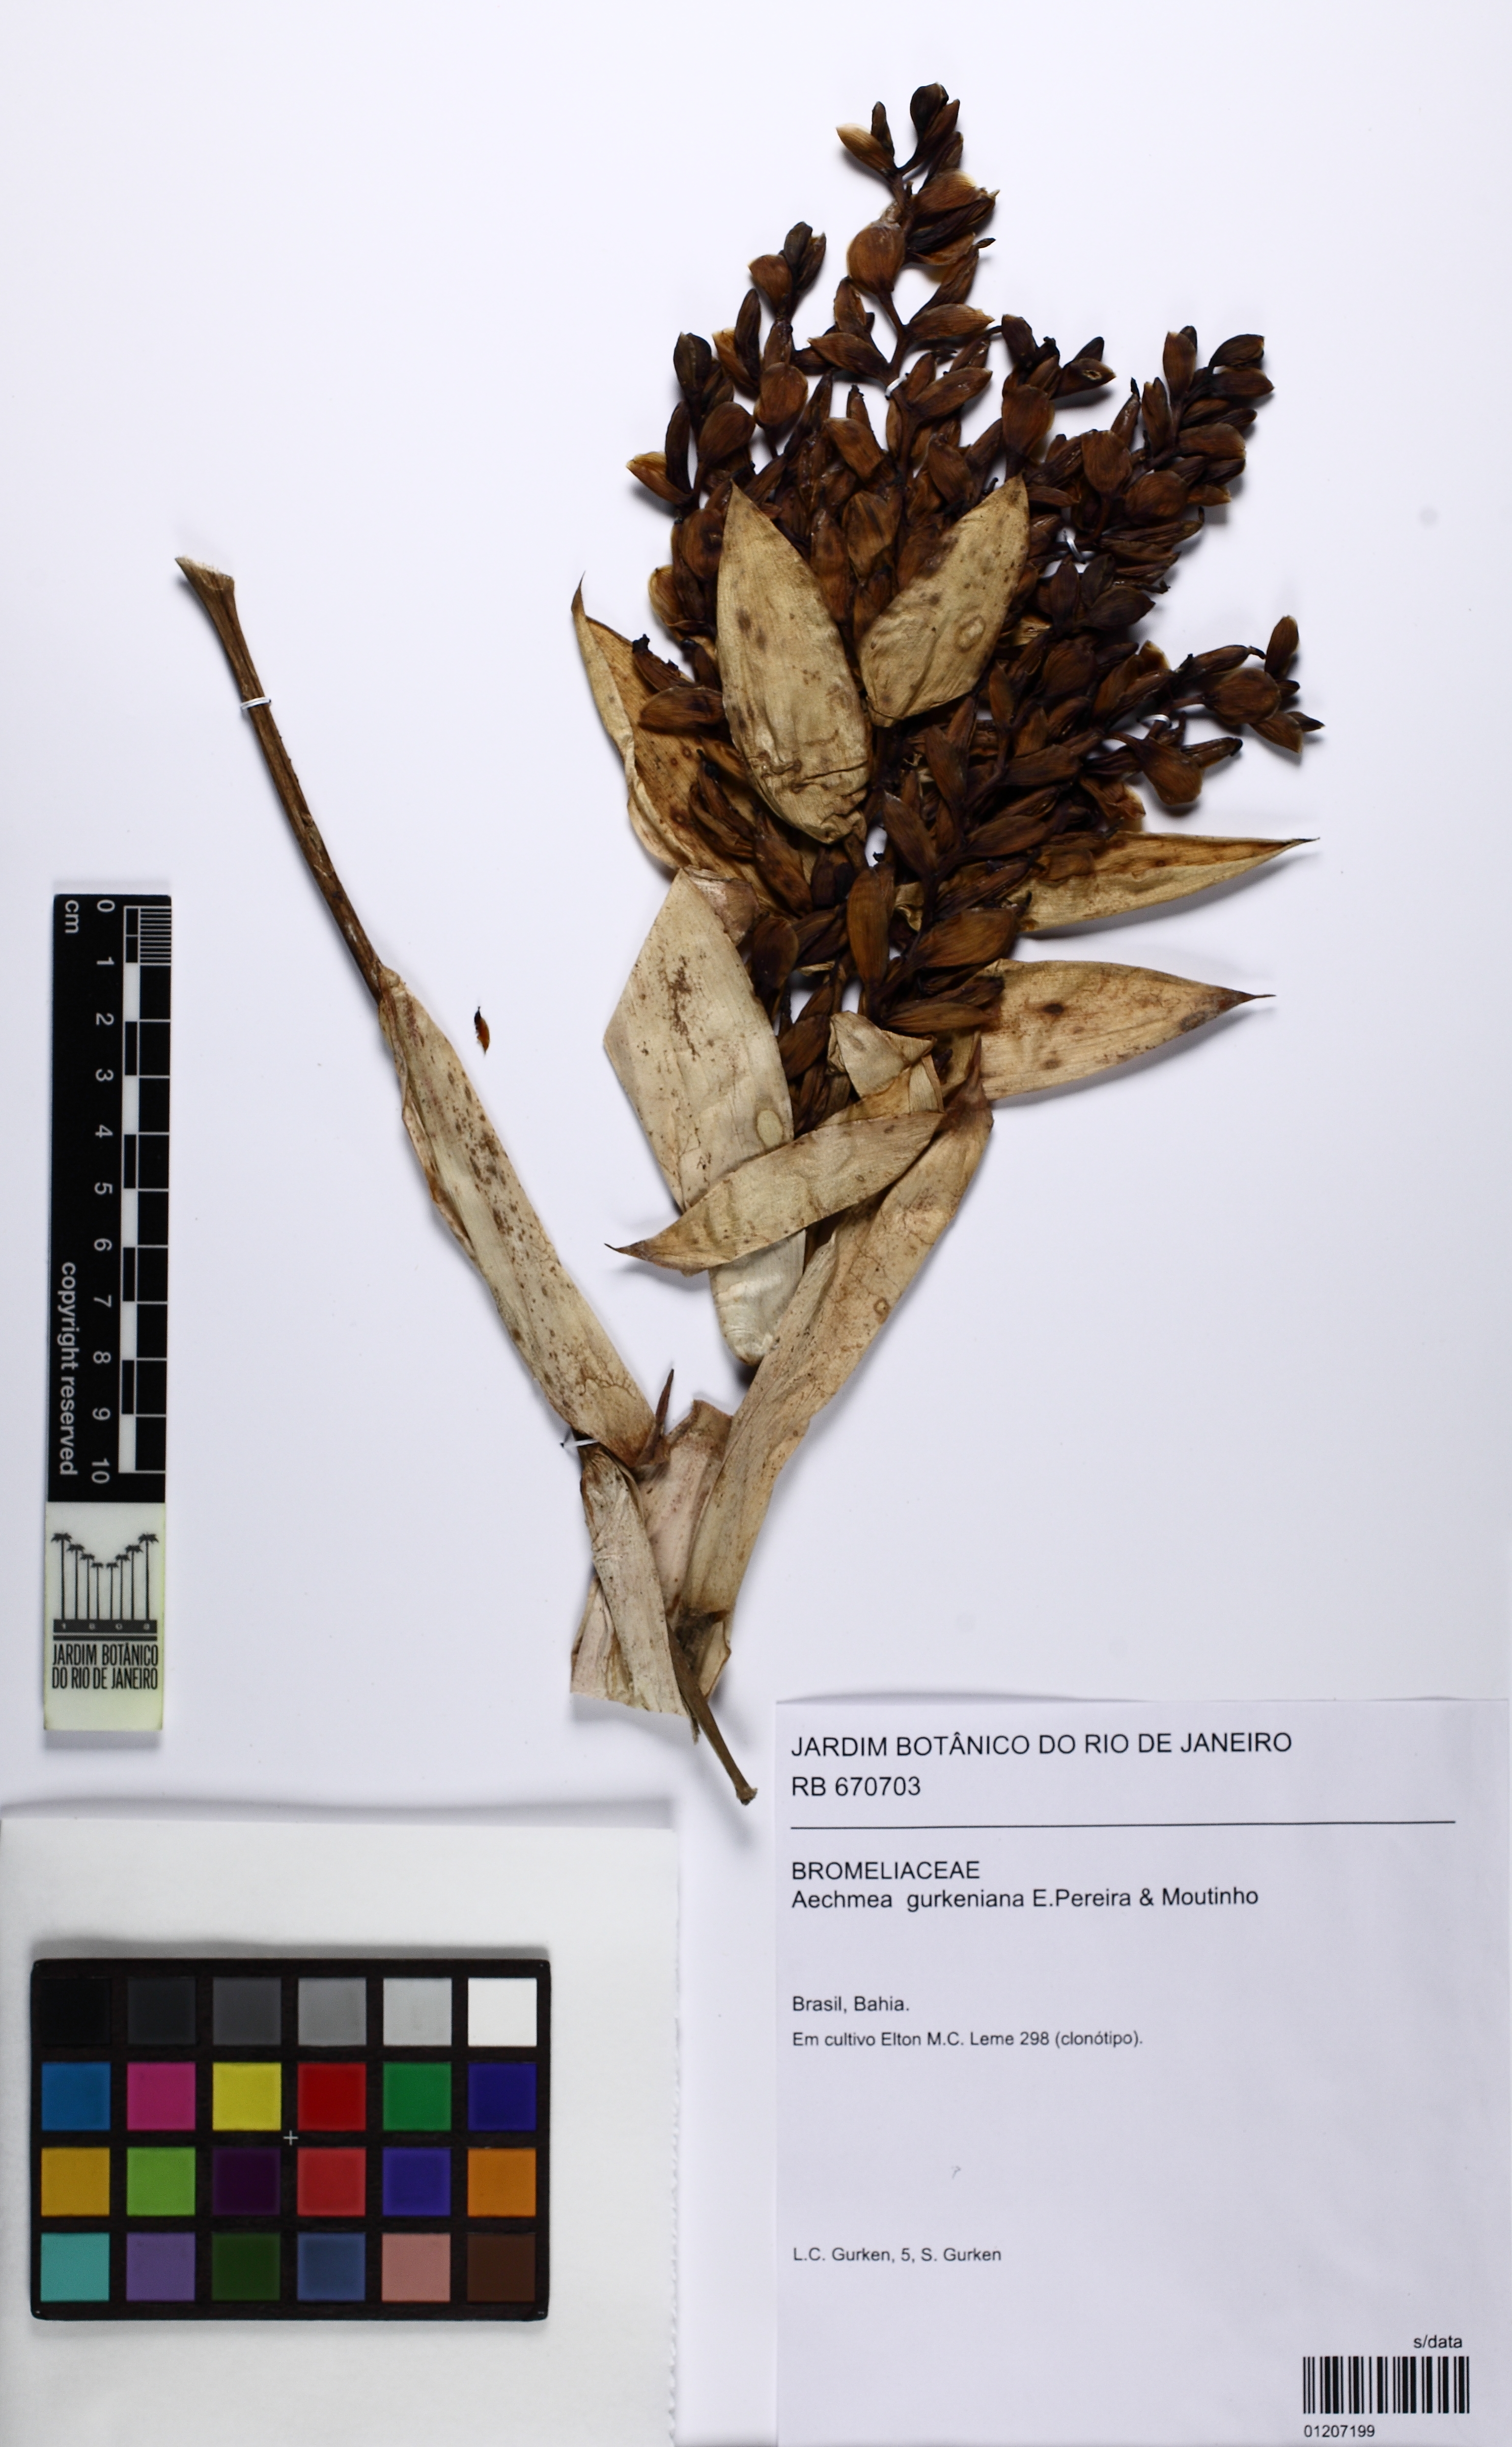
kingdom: Plantae
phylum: Tracheophyta
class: Liliopsida
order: Poales
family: Bromeliaceae
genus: Aechmea
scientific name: Aechmea gurkeniana
